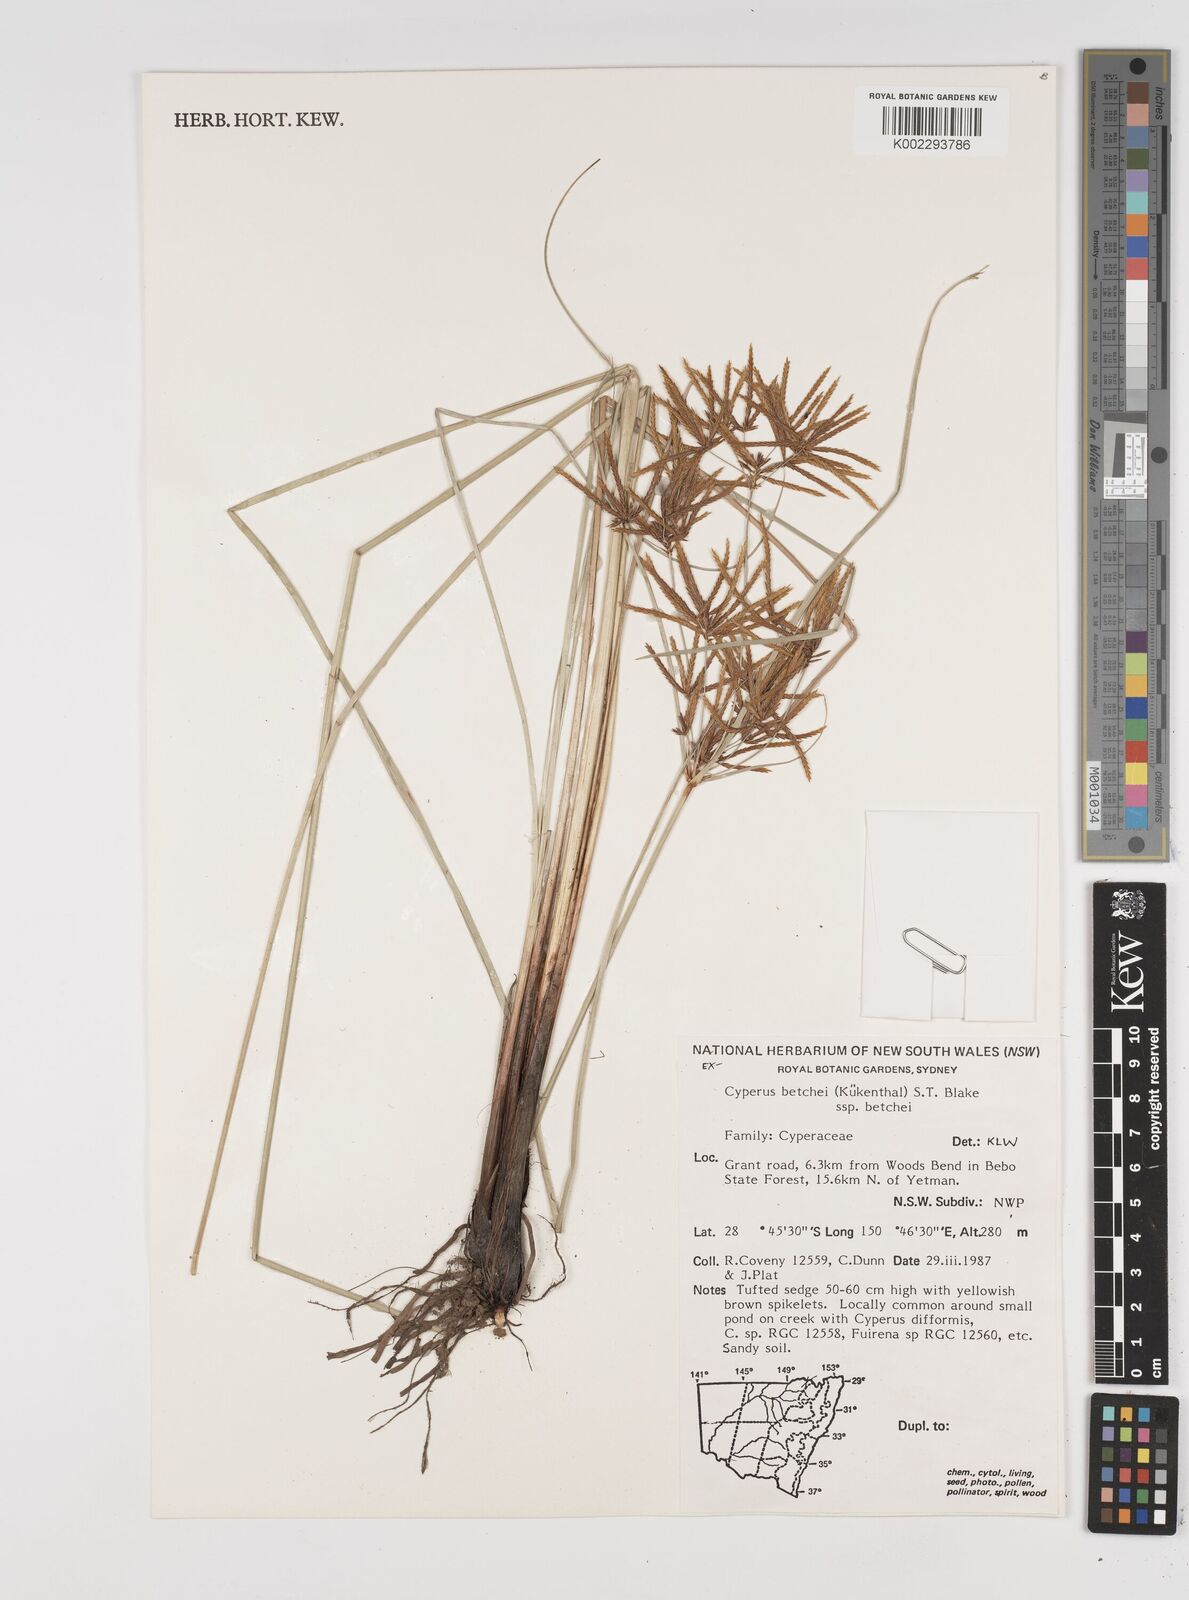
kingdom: Plantae
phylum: Tracheophyta
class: Liliopsida
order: Poales
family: Cyperaceae
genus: Cyperus
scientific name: Cyperus betchei
